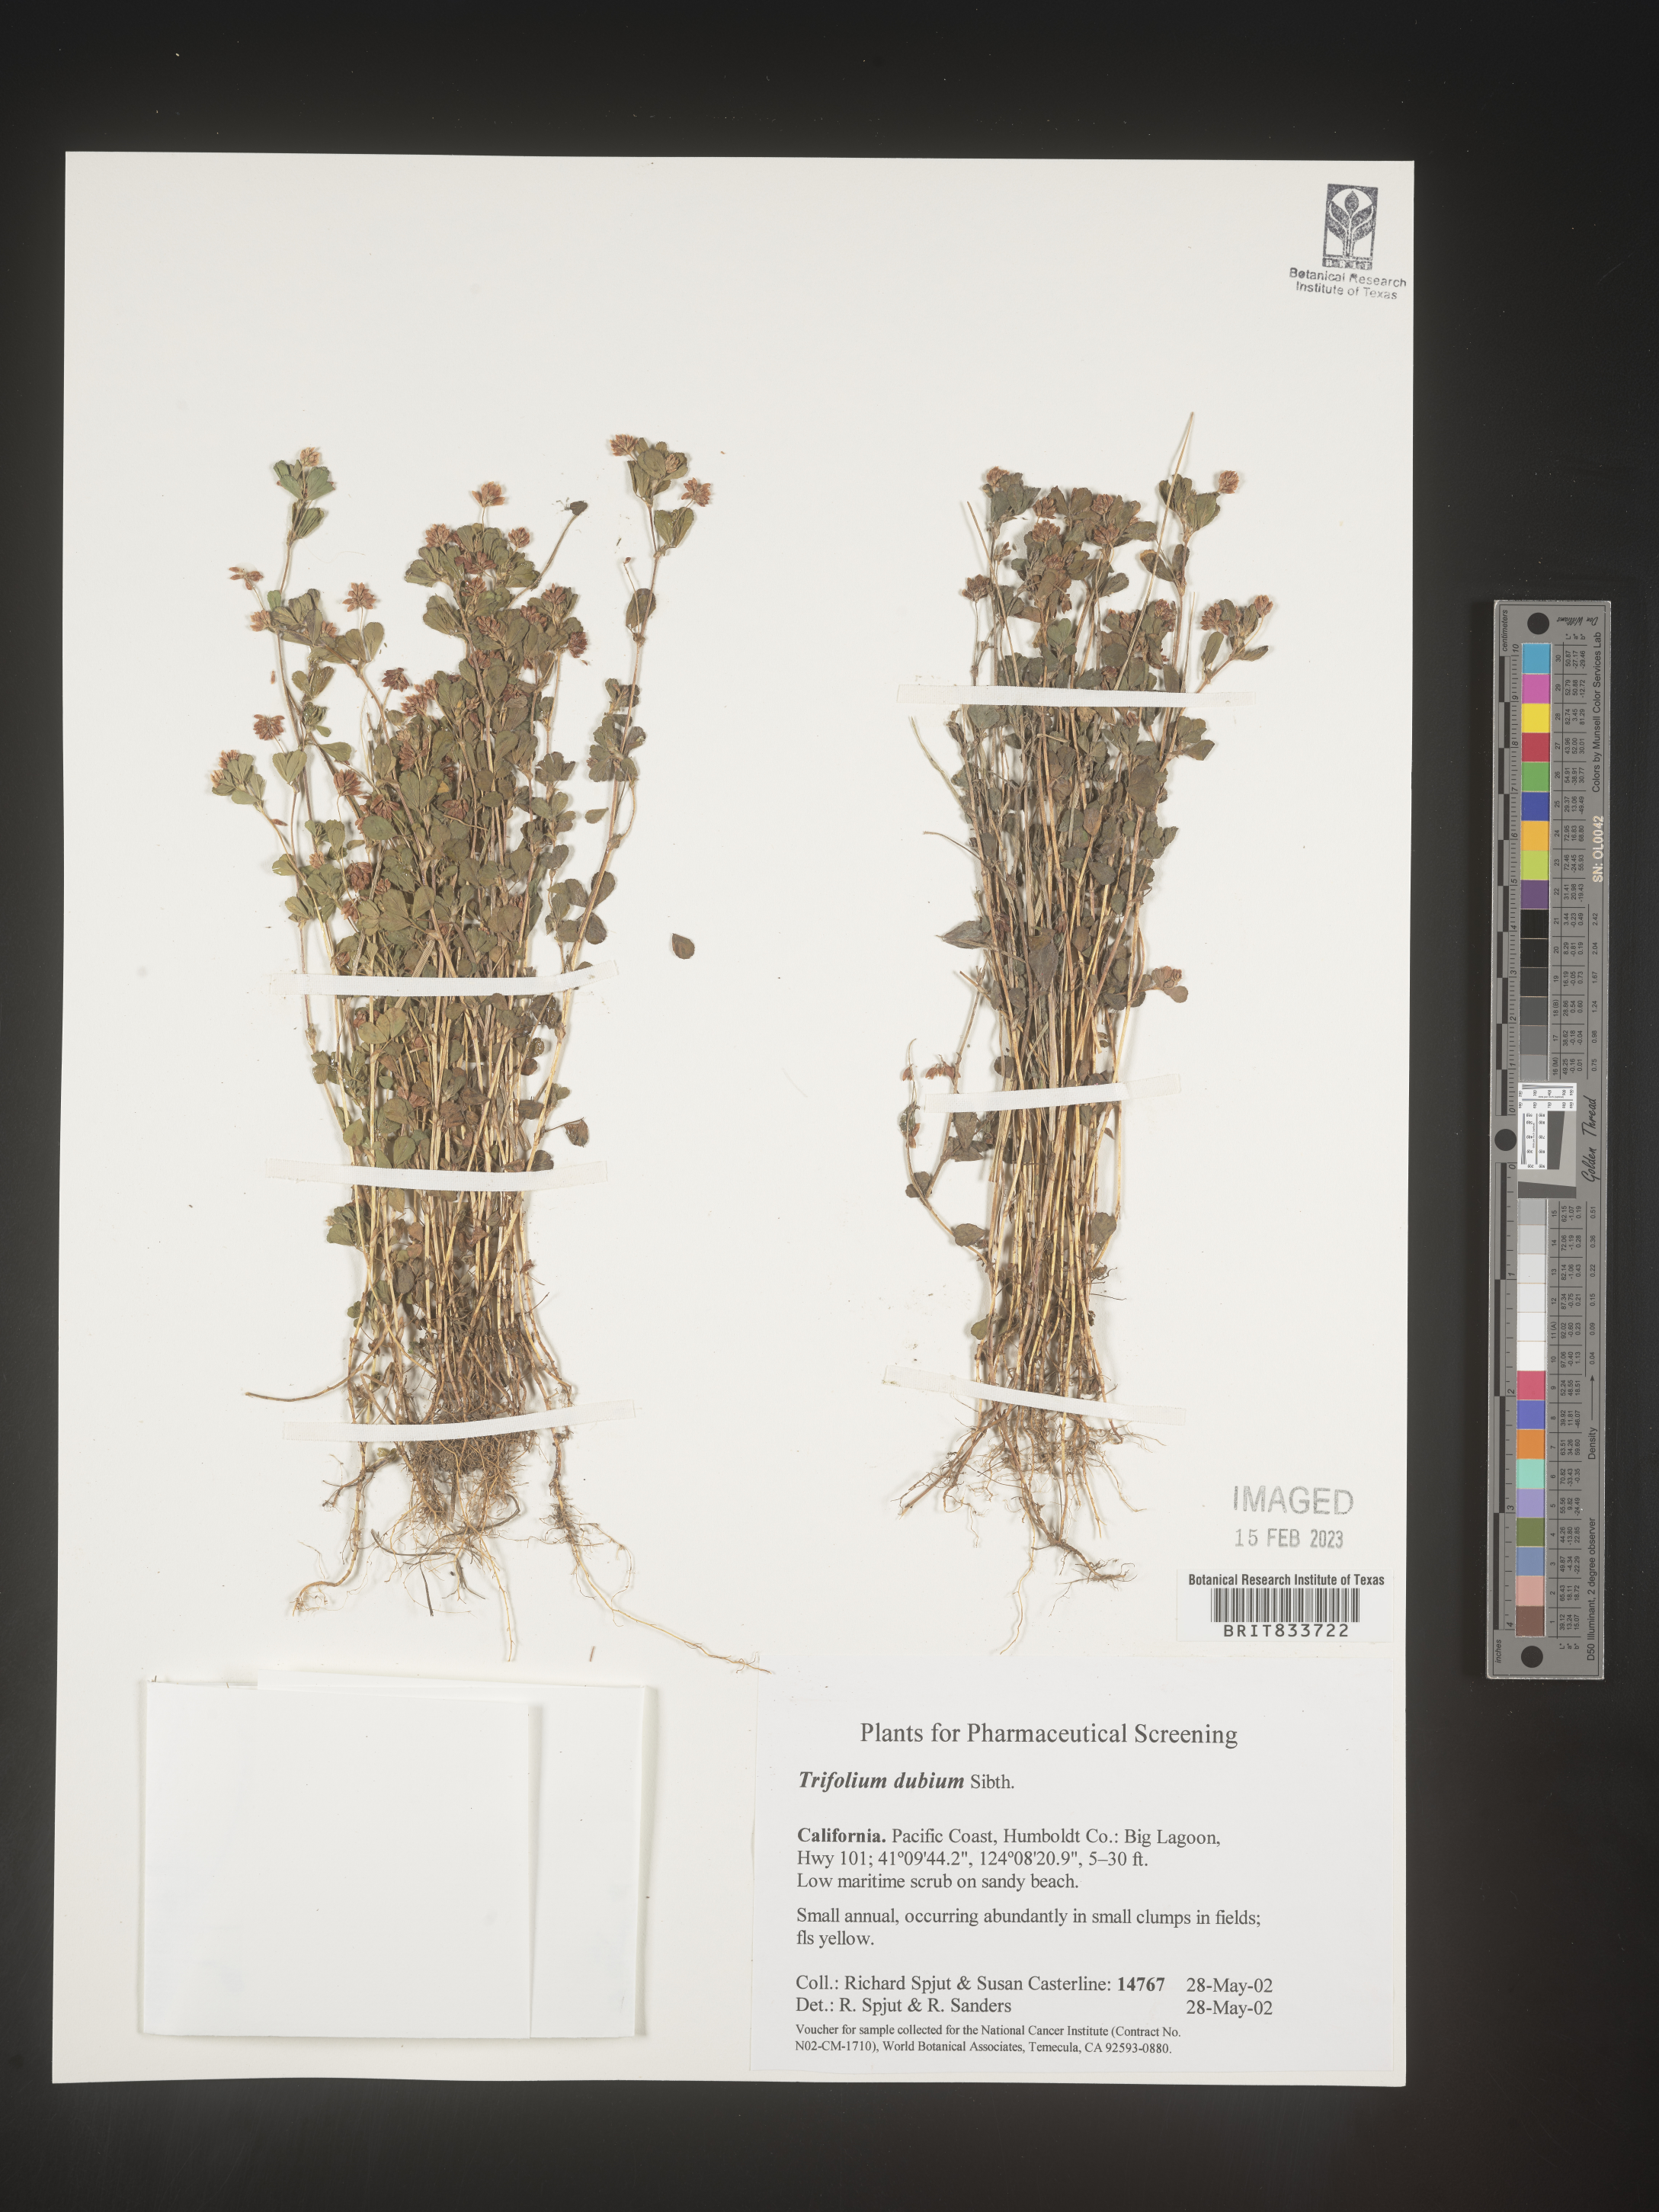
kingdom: Plantae
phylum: Tracheophyta
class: Magnoliopsida
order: Fabales
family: Fabaceae
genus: Trifolium
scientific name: Trifolium dubium
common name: Suckling clover
